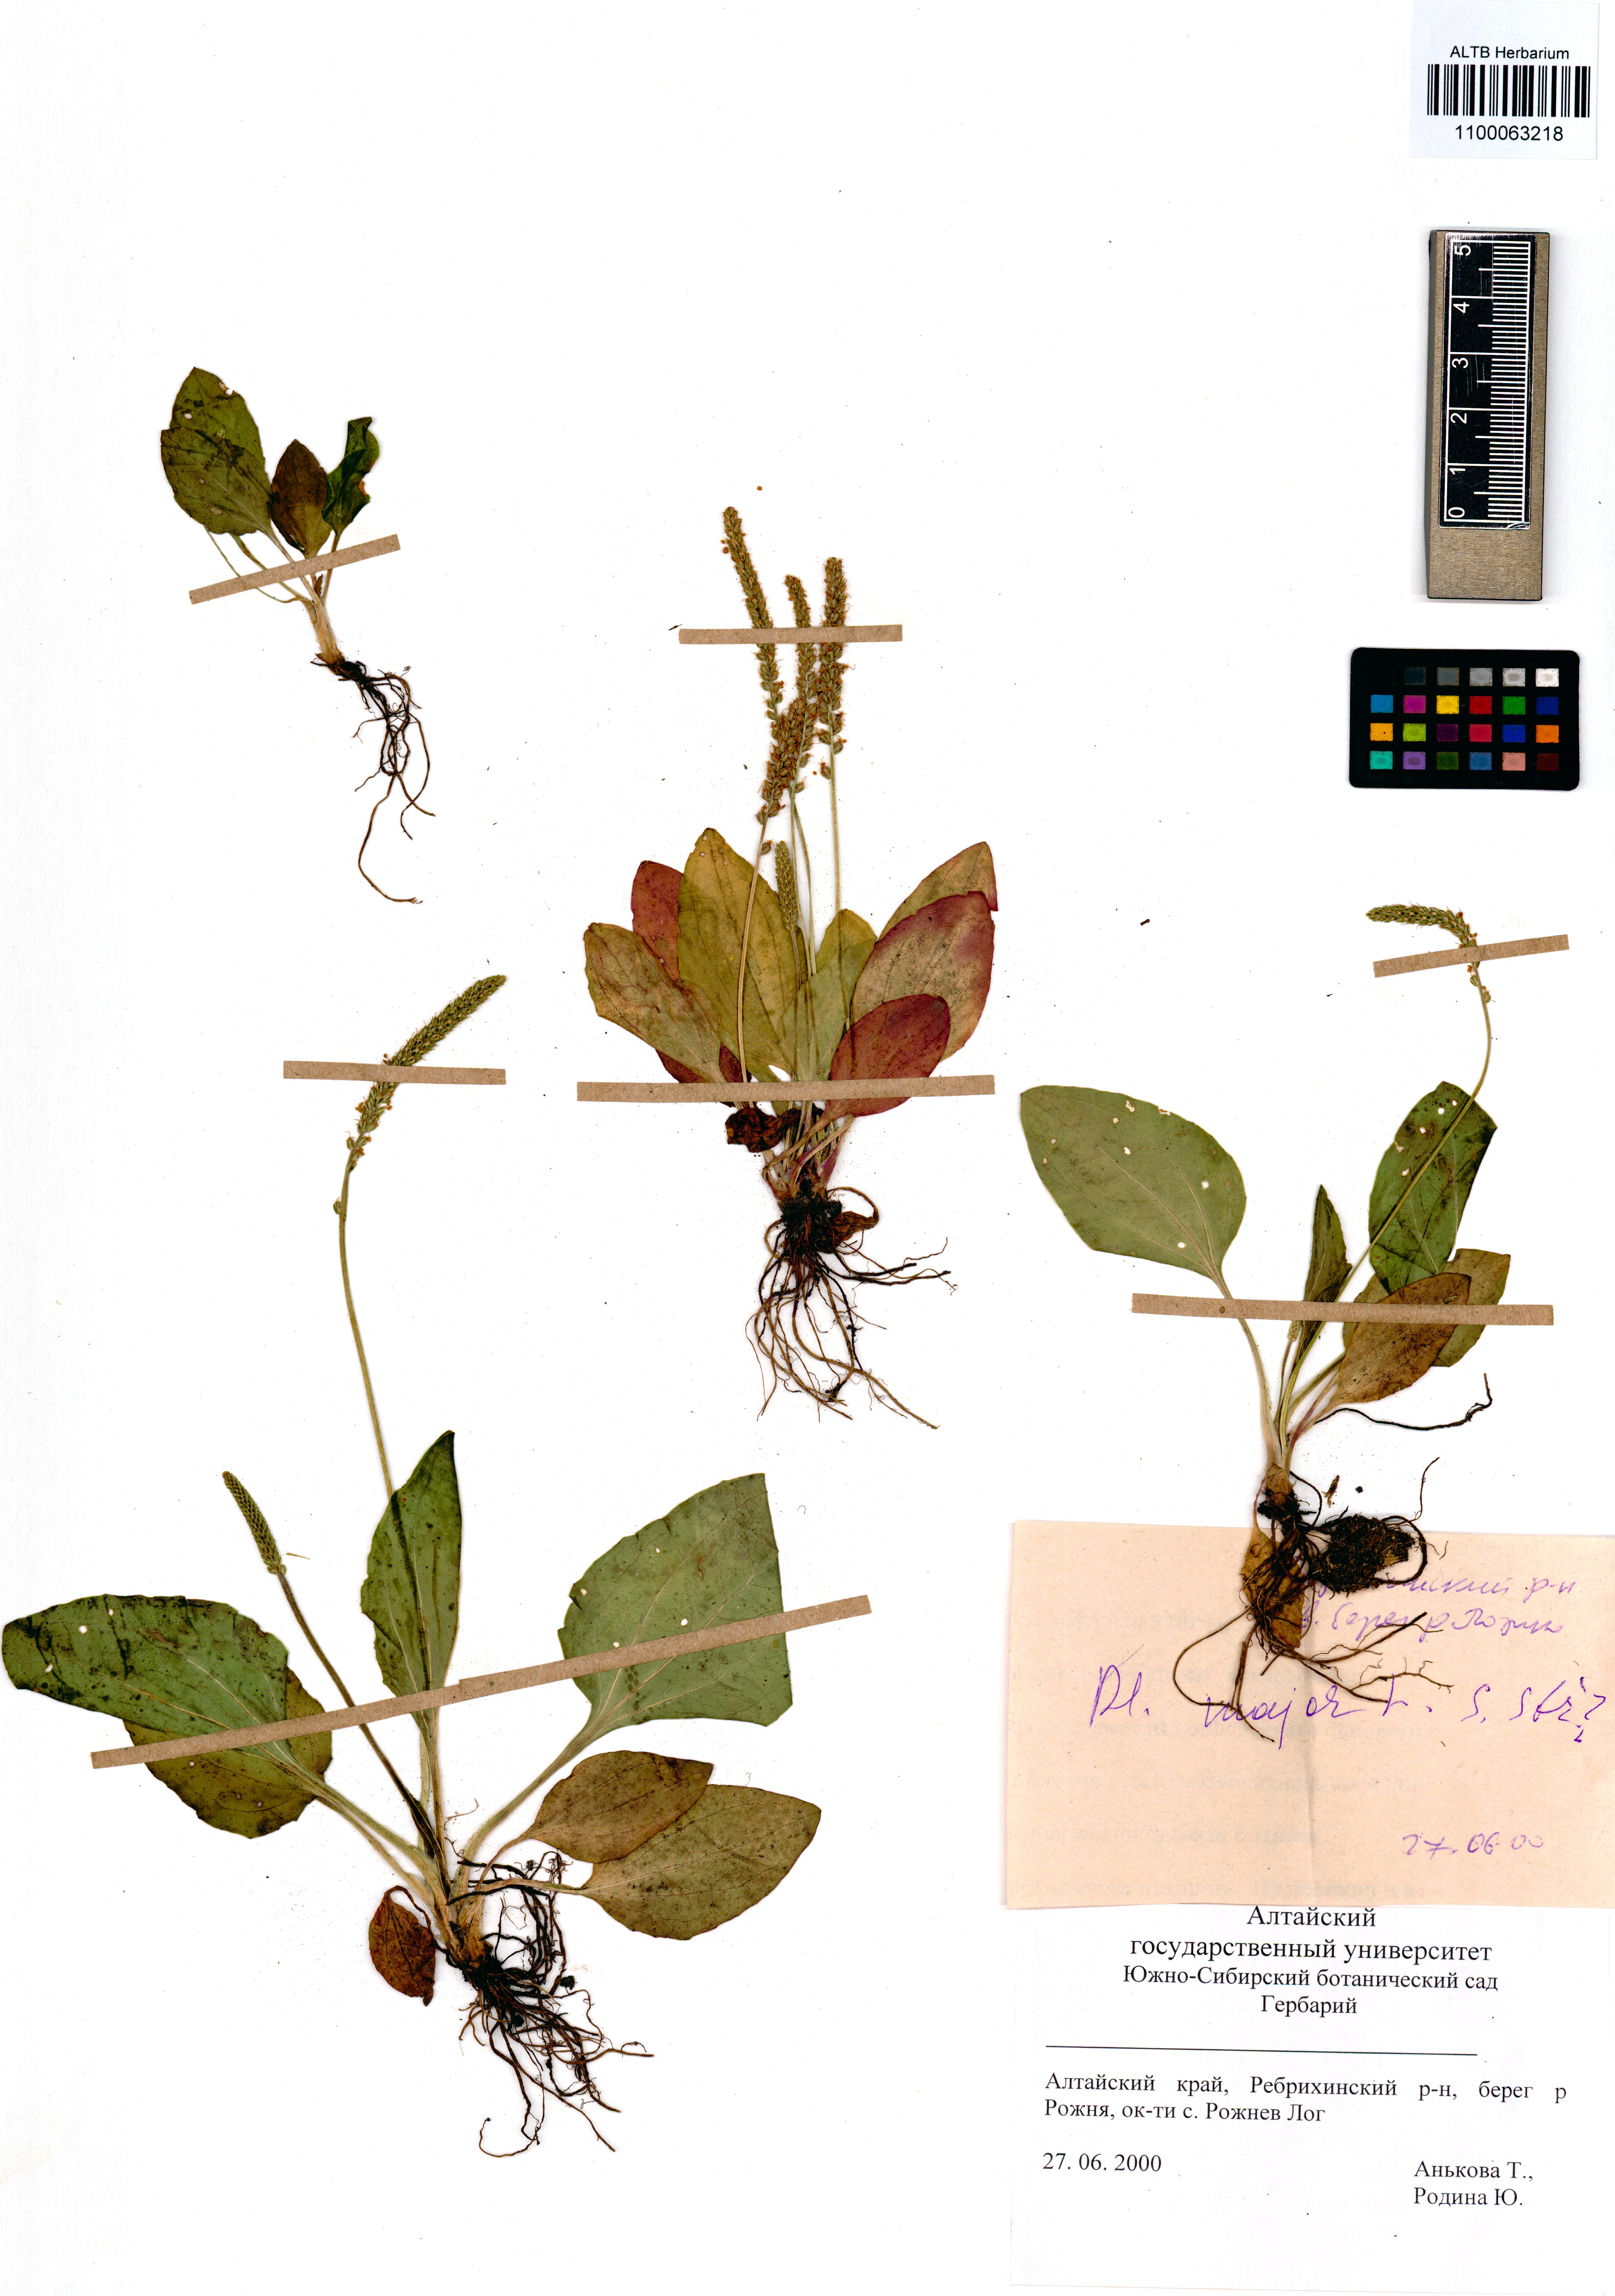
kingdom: Plantae
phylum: Tracheophyta
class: Magnoliopsida
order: Lamiales
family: Plantaginaceae
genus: Plantago
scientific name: Plantago major
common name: Common plantain
